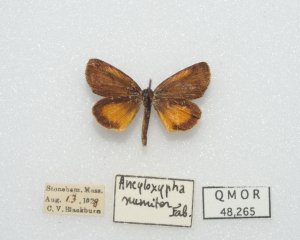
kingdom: Animalia
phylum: Arthropoda
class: Insecta
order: Lepidoptera
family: Hesperiidae
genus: Ancyloxypha
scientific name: Ancyloxypha numitor
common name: Least Skipper
